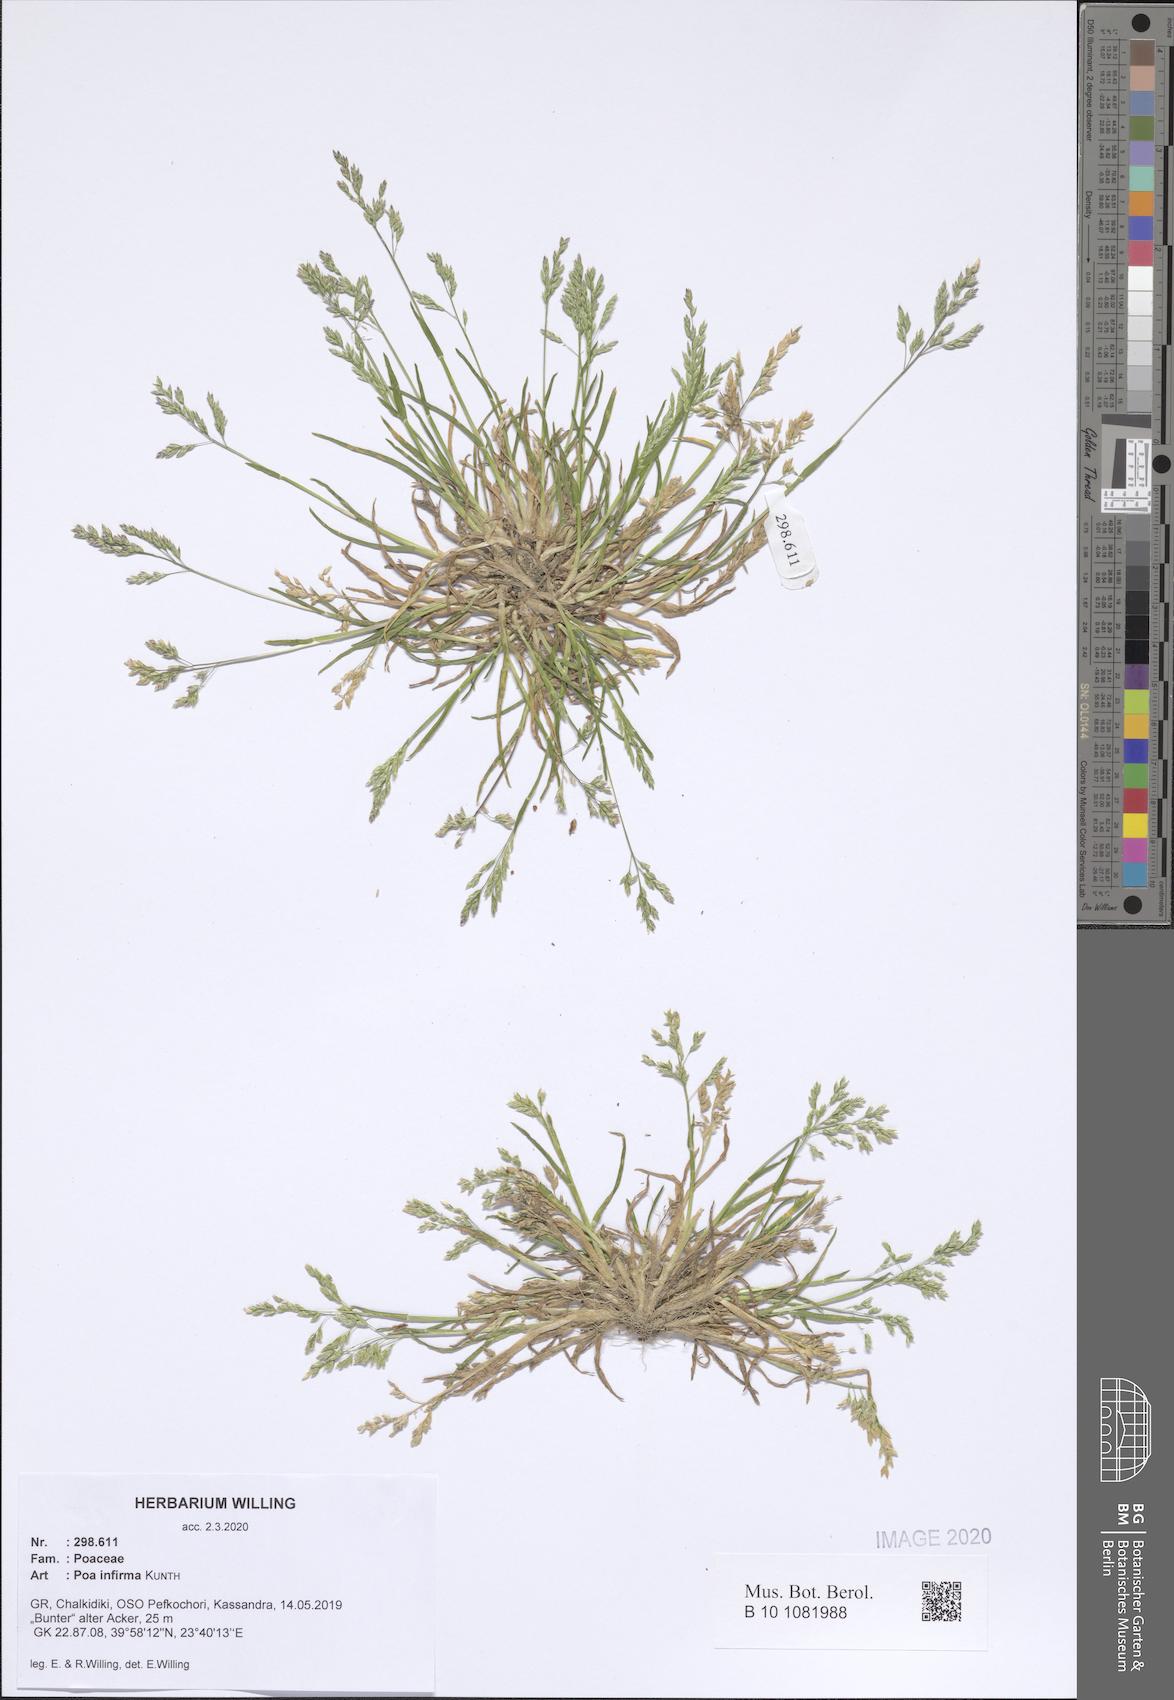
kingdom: Plantae
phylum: Tracheophyta
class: Liliopsida
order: Poales
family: Poaceae
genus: Poa
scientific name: Poa infirma
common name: Weak bluegrass
